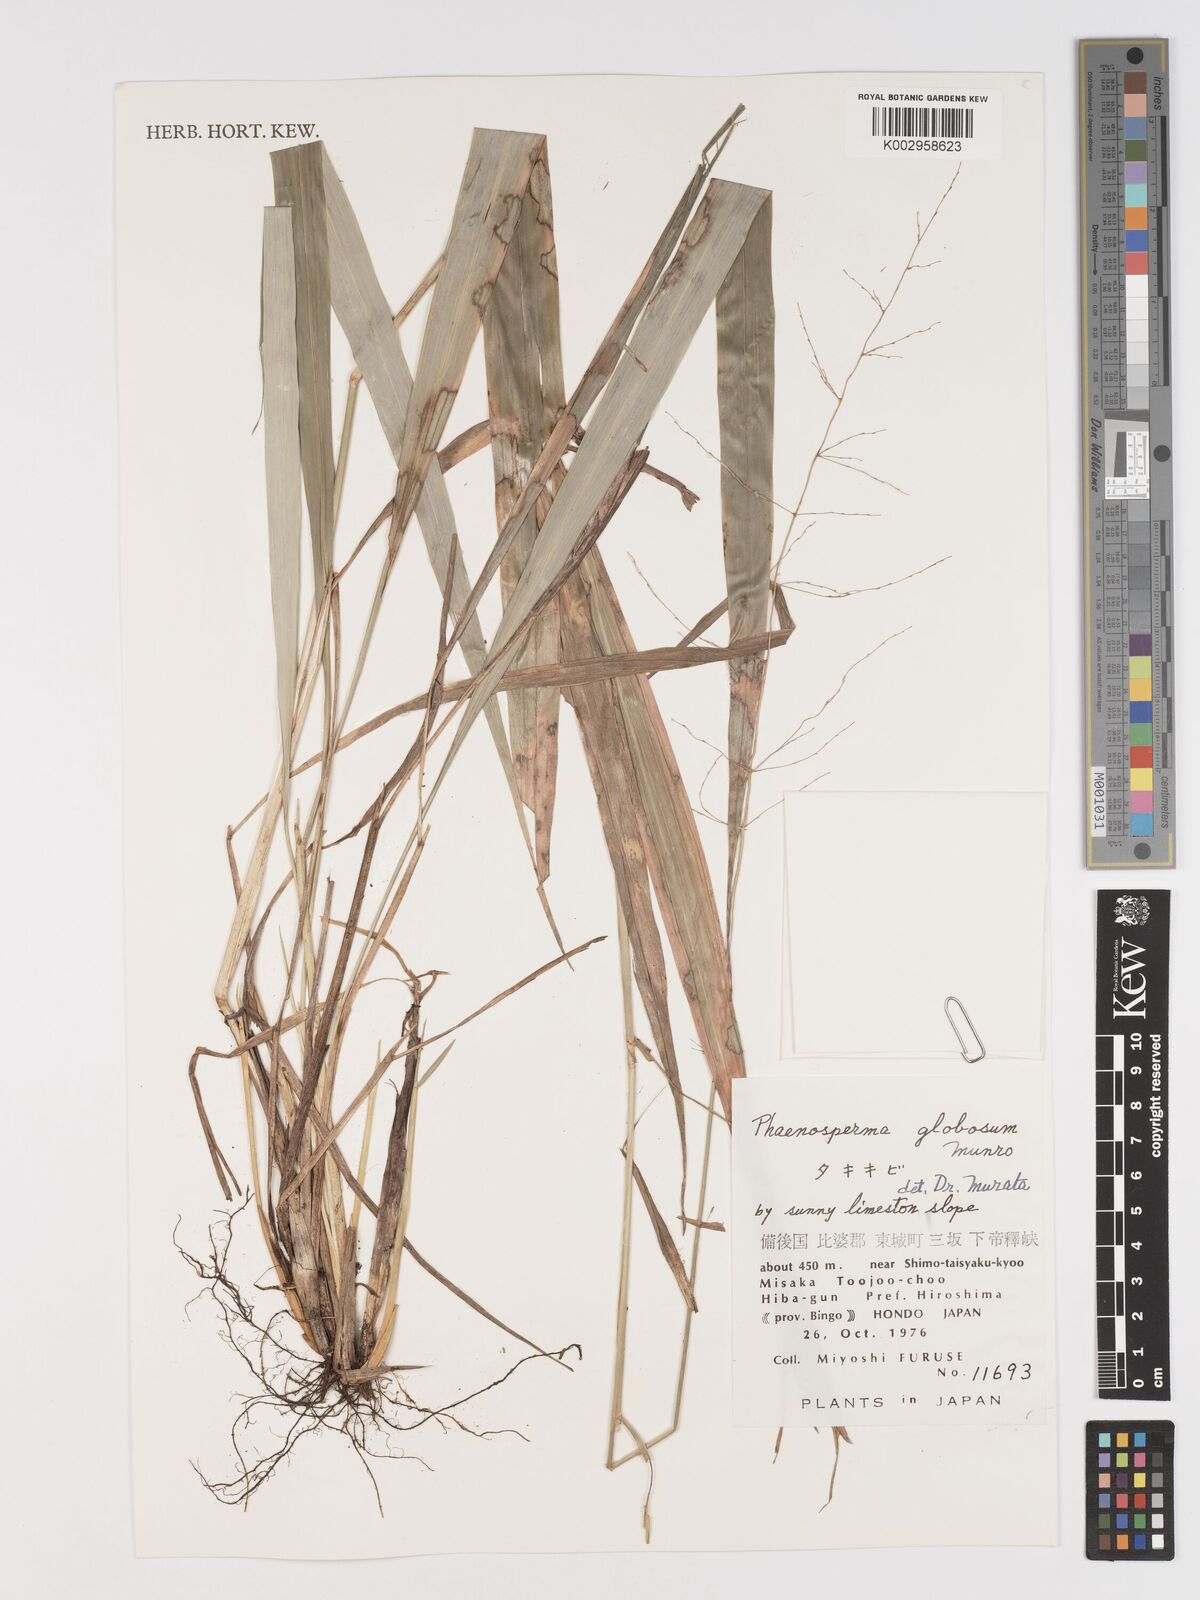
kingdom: Plantae
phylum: Tracheophyta
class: Liliopsida
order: Poales
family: Poaceae
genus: Phaenosperma
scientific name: Phaenosperma globosum
